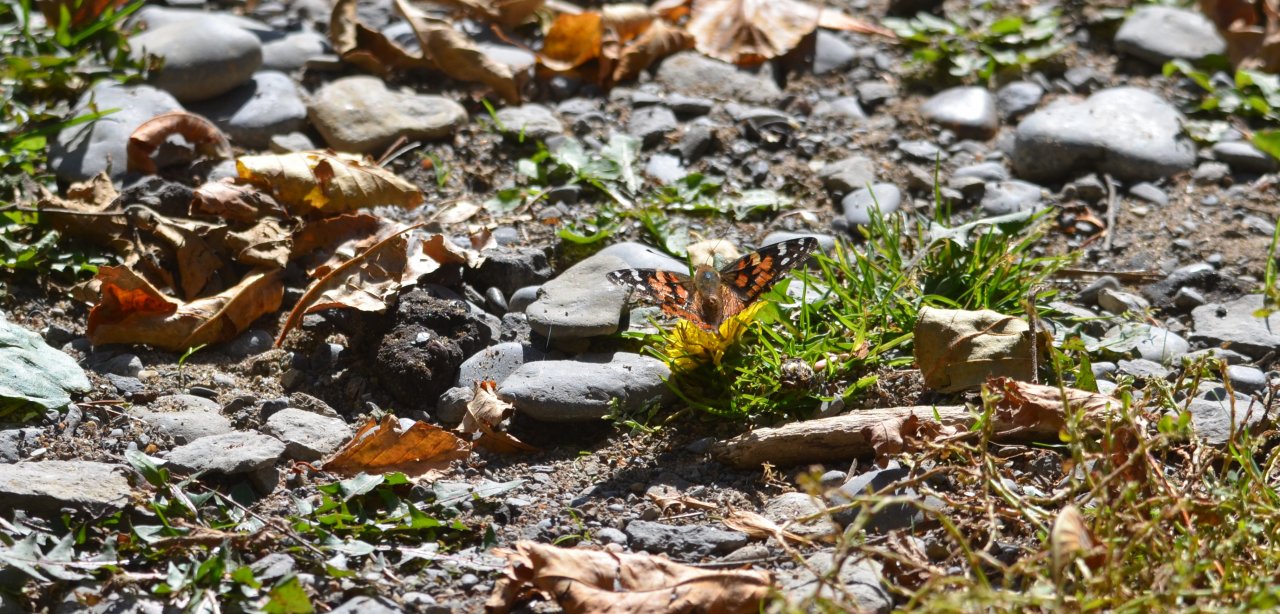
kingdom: Animalia
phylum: Arthropoda
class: Insecta
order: Lepidoptera
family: Nymphalidae
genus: Vanessa
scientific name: Vanessa cardui
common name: Painted Lady
